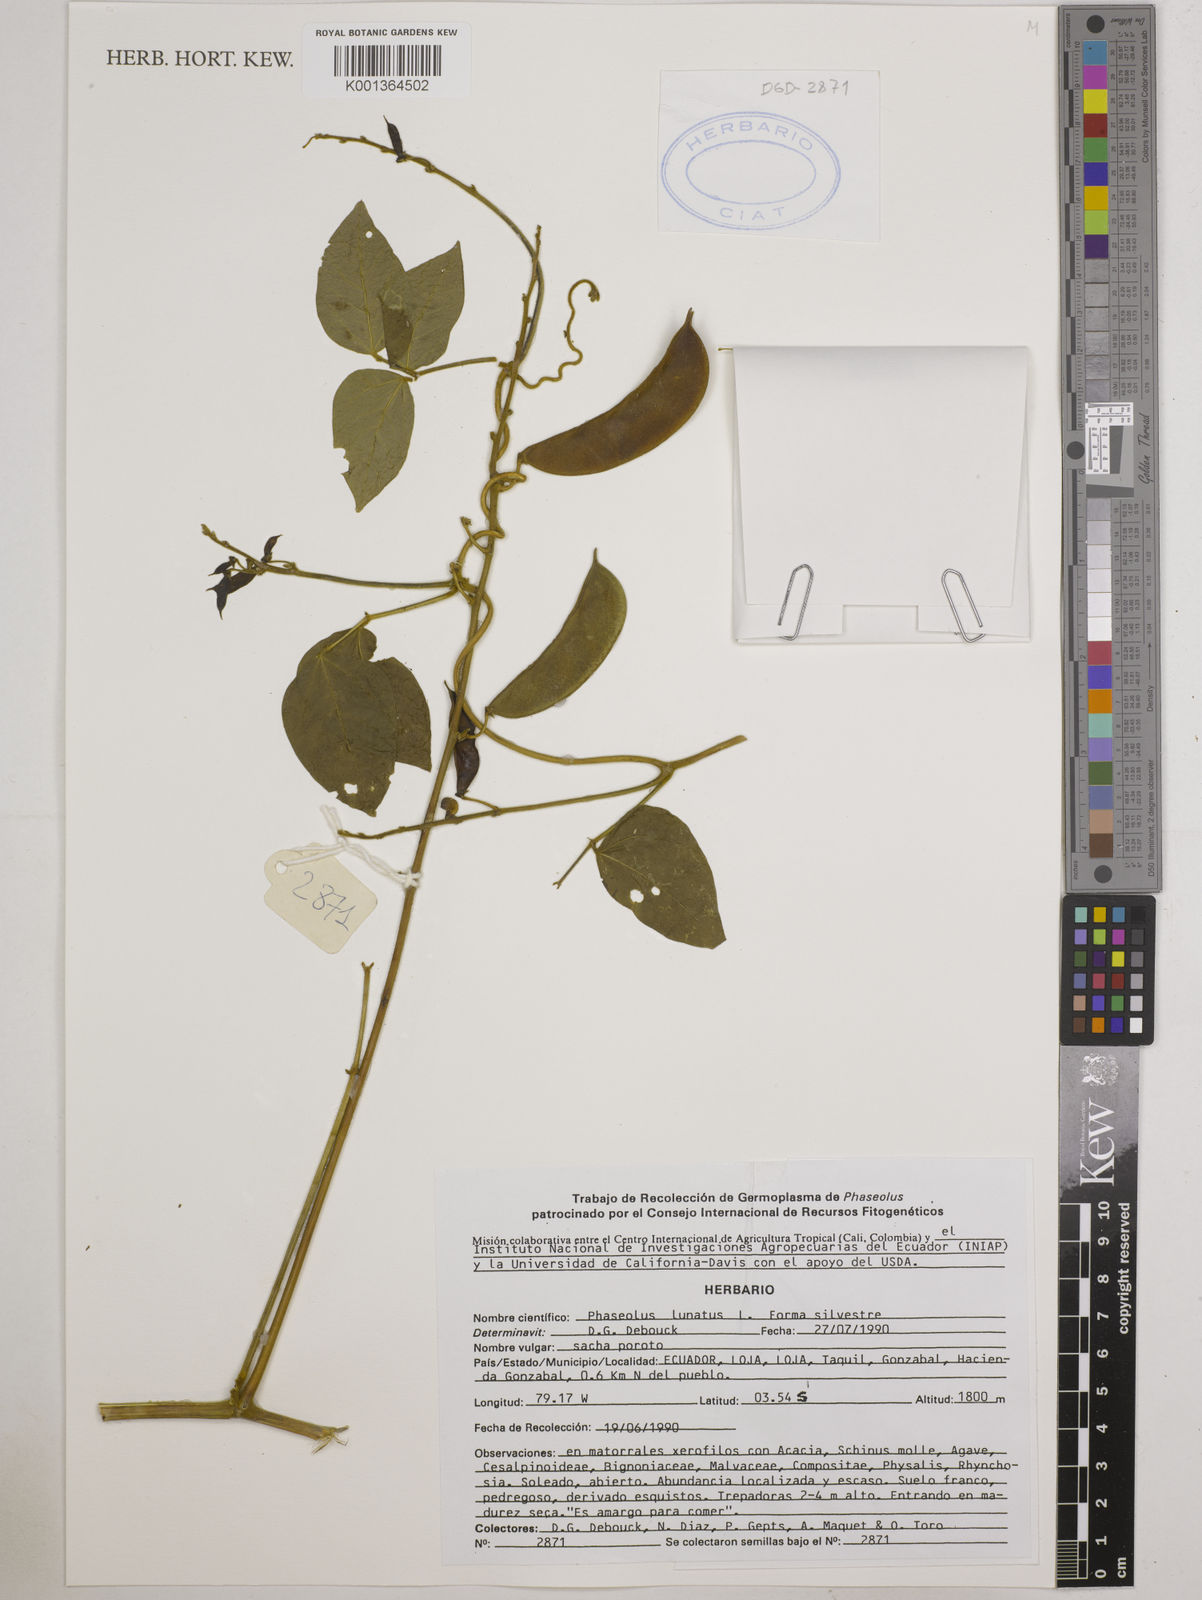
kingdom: Plantae
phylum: Tracheophyta
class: Magnoliopsida
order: Fabales
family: Fabaceae
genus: Phaseolus
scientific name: Phaseolus
